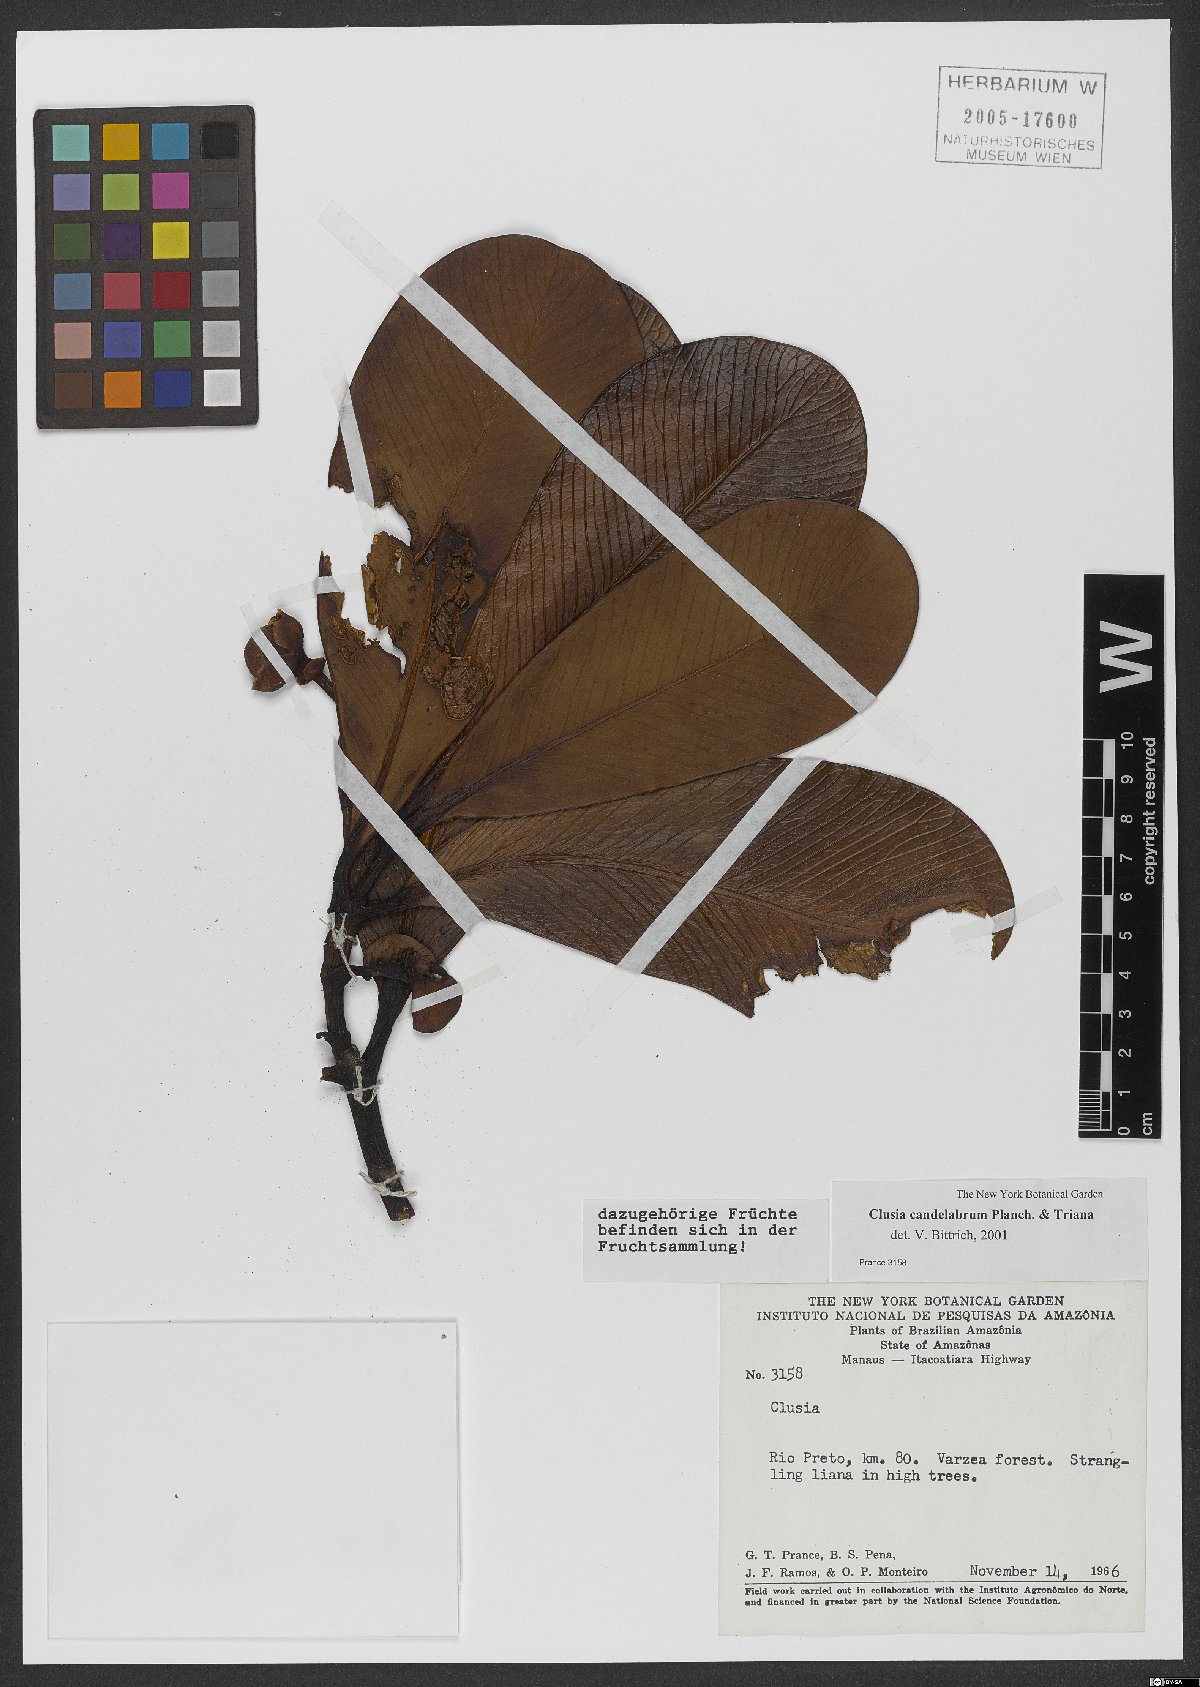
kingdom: Plantae
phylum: Tracheophyta
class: Magnoliopsida
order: Malpighiales
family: Clusiaceae
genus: Clusia
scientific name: Clusia candelabrum
